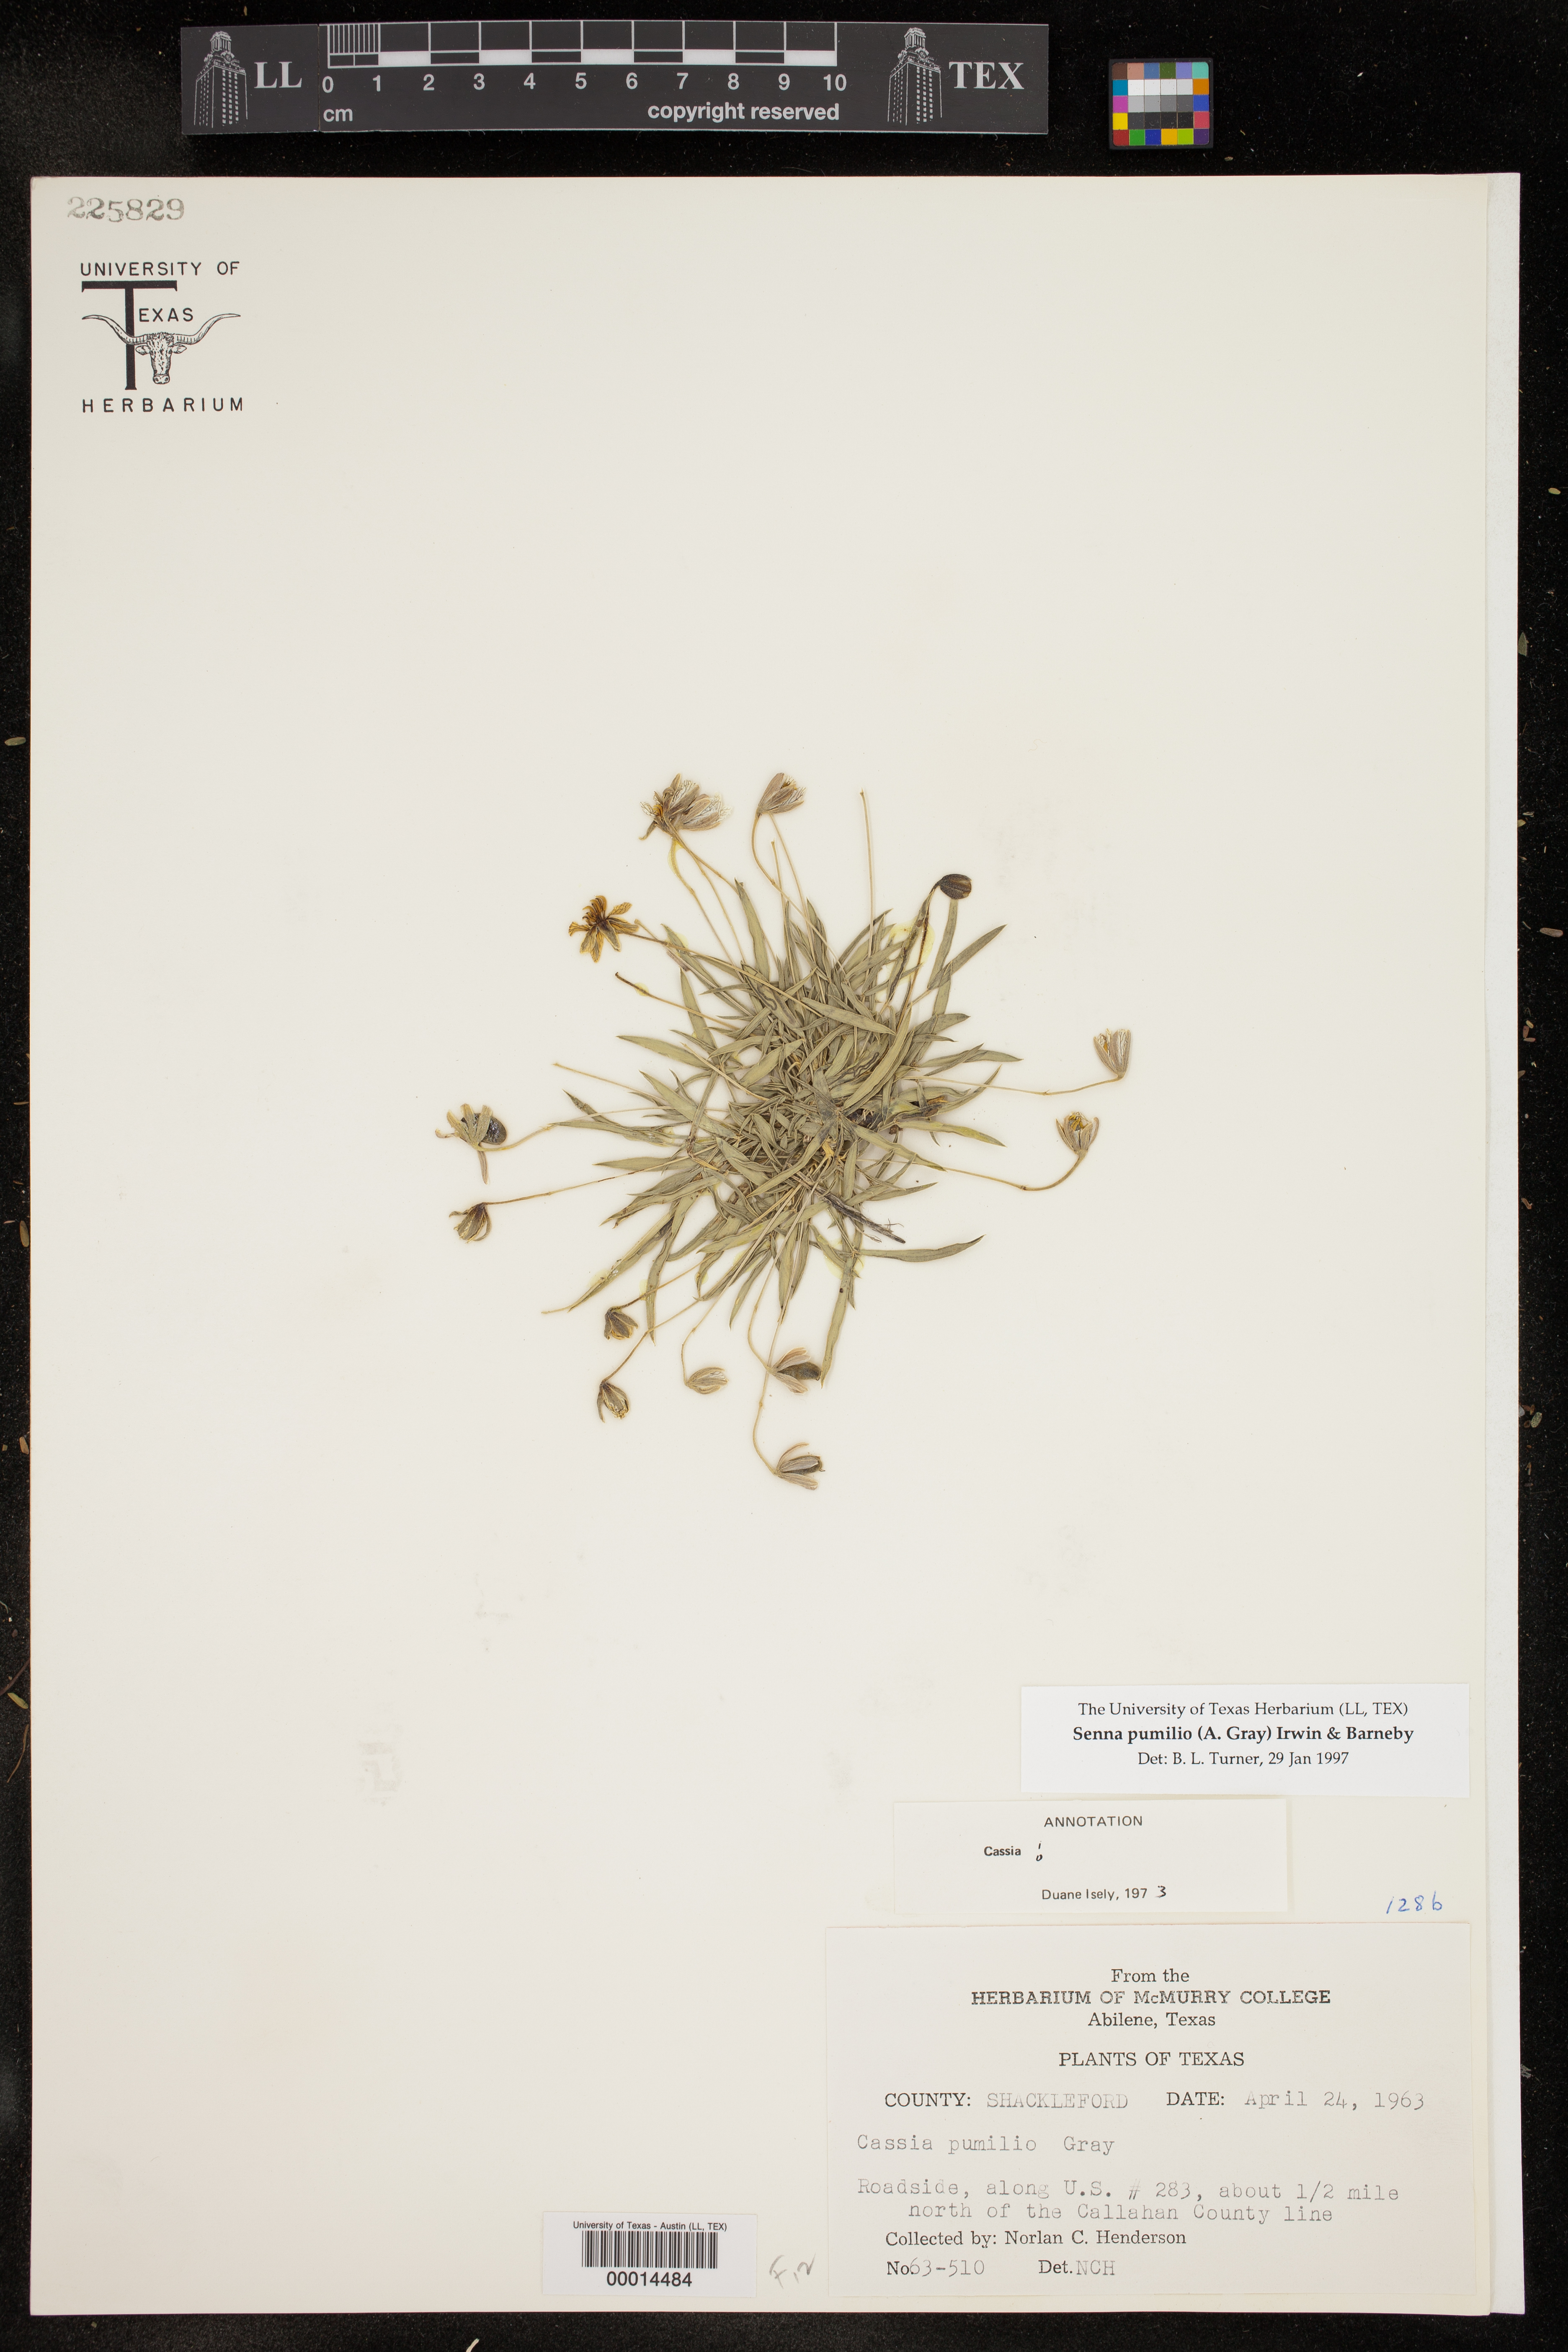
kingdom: Plantae
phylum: Tracheophyta
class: Magnoliopsida
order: Fabales
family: Fabaceae
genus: Senna
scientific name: Senna pumilio
